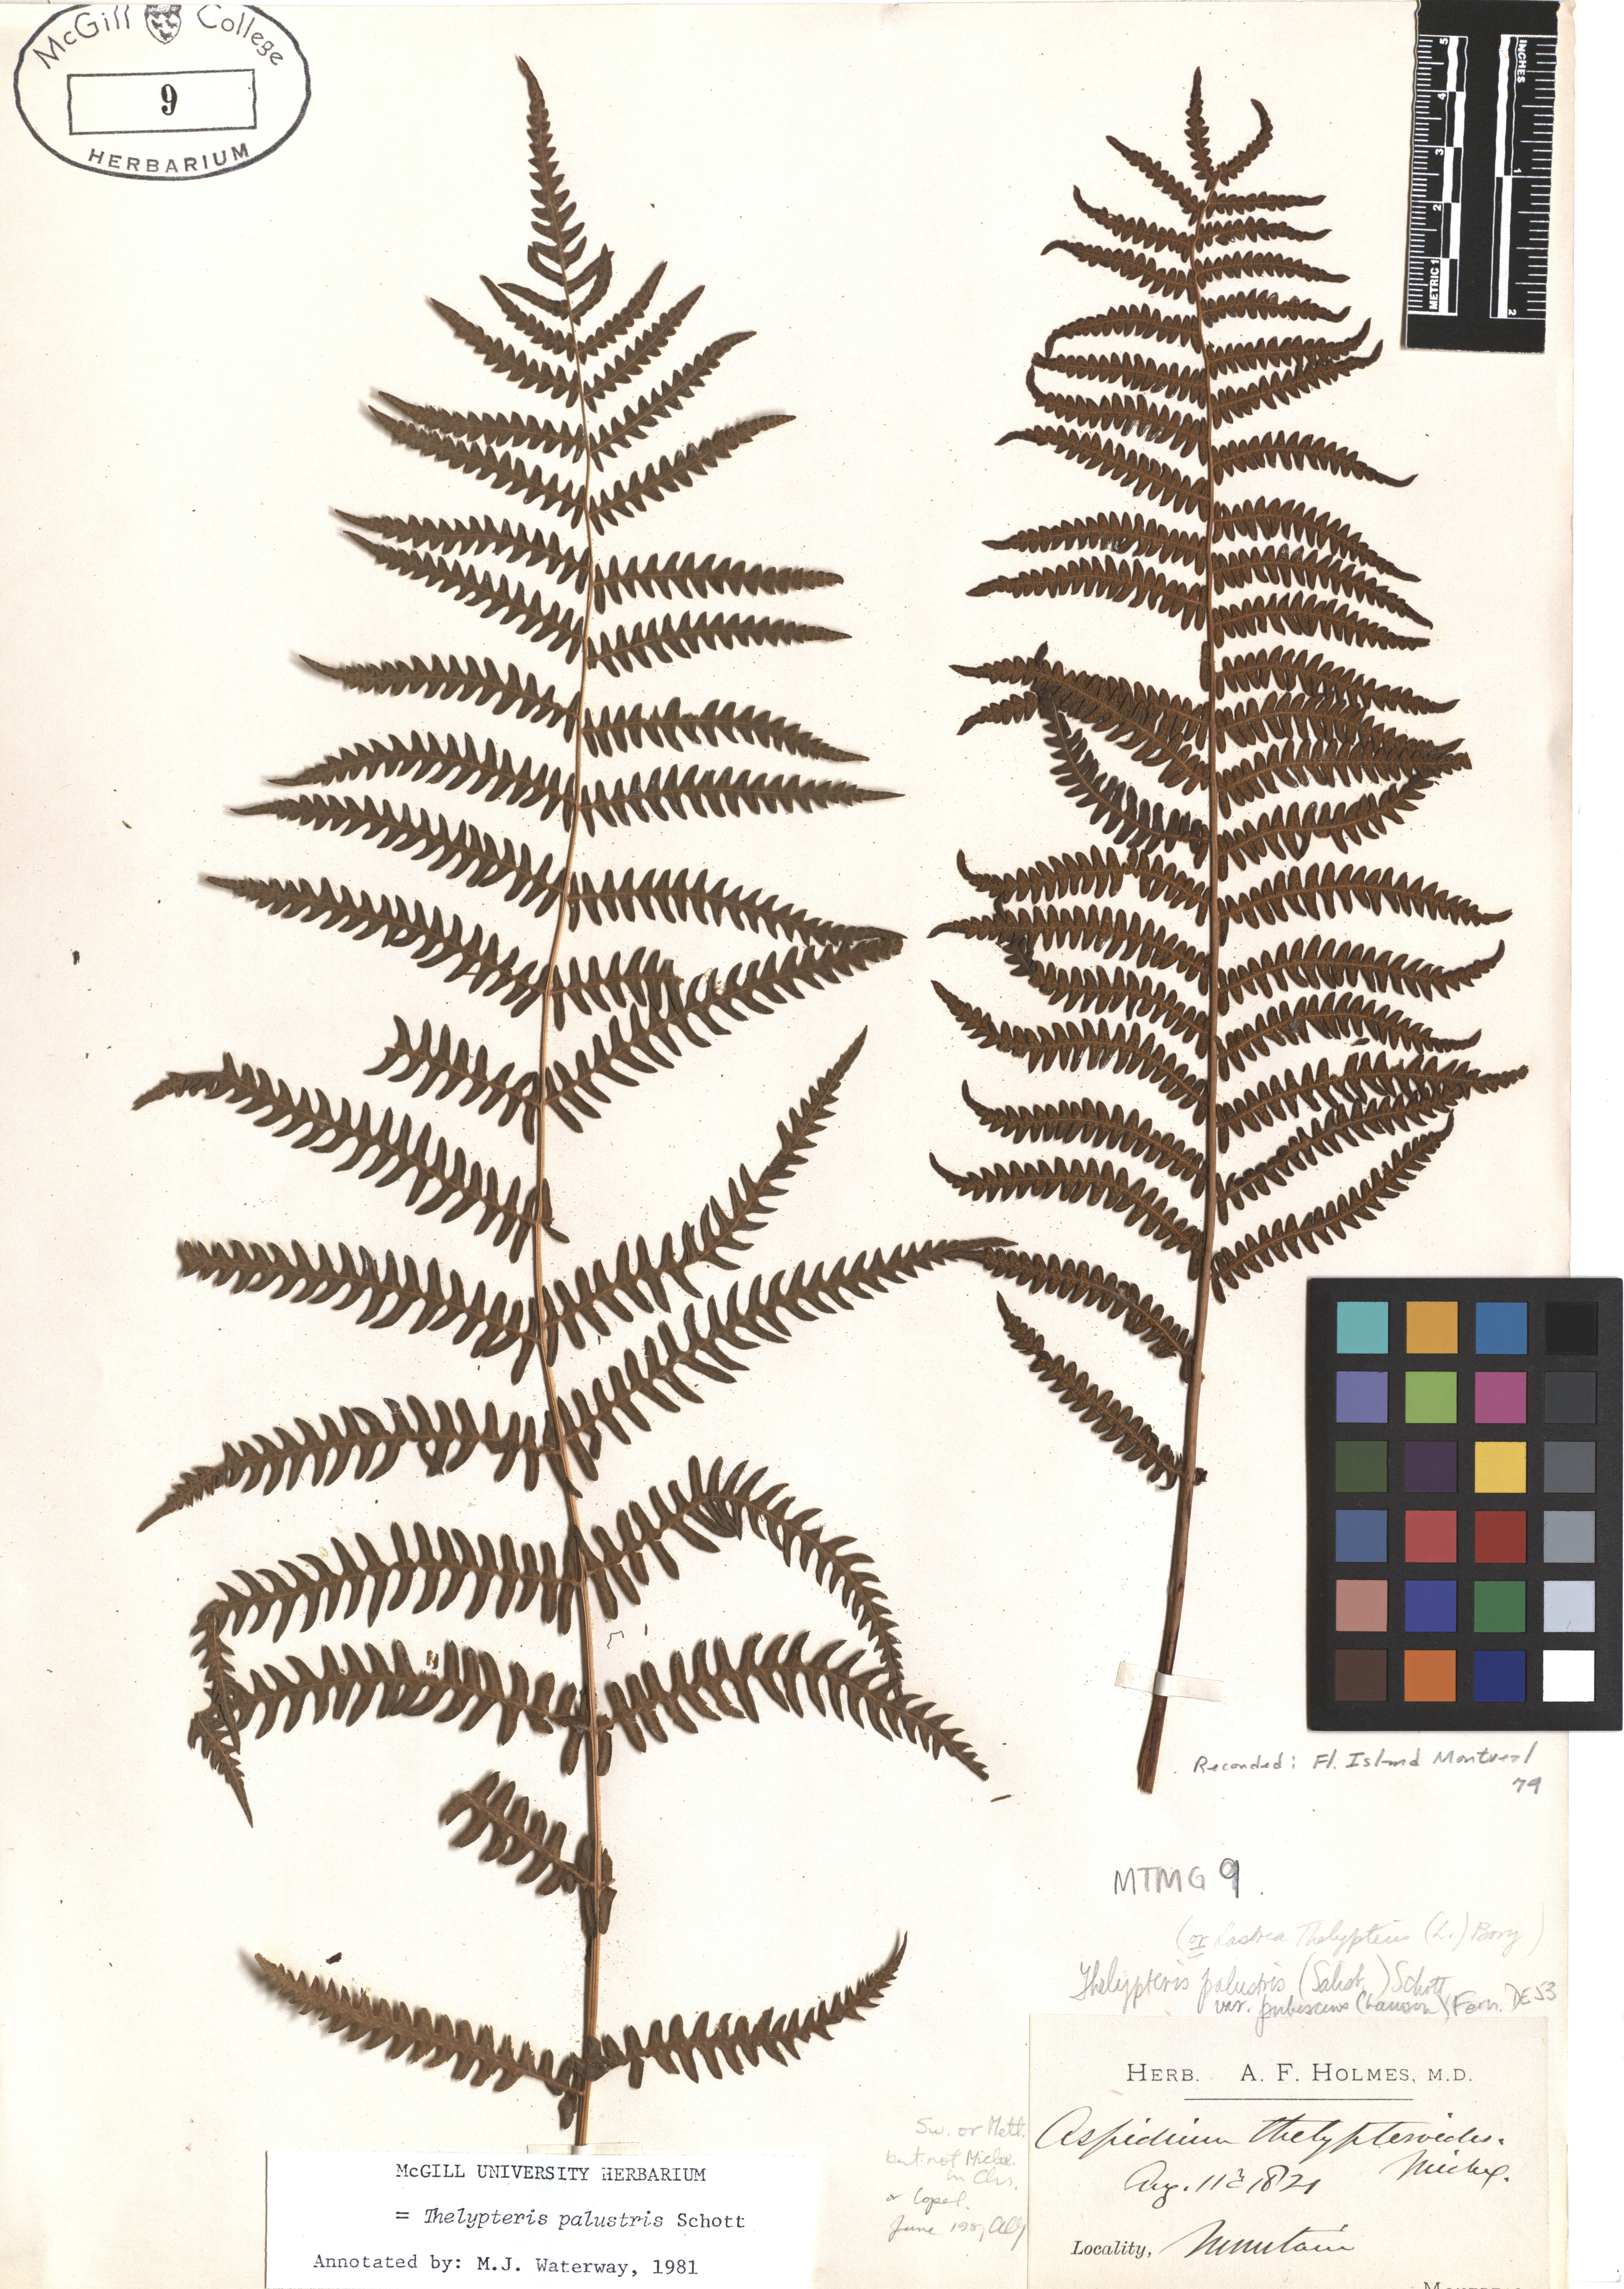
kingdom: Plantae
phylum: Tracheophyta
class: Polypodiopsida
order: Polypodiales
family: Thelypteridaceae
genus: Thelypteris
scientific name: Thelypteris confluens
